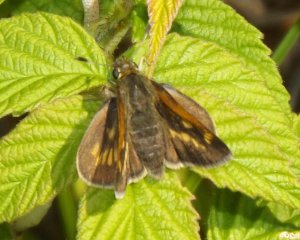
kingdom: Animalia
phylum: Arthropoda
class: Insecta
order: Lepidoptera
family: Hesperiidae
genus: Polites
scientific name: Polites
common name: Long Dash Skipper
